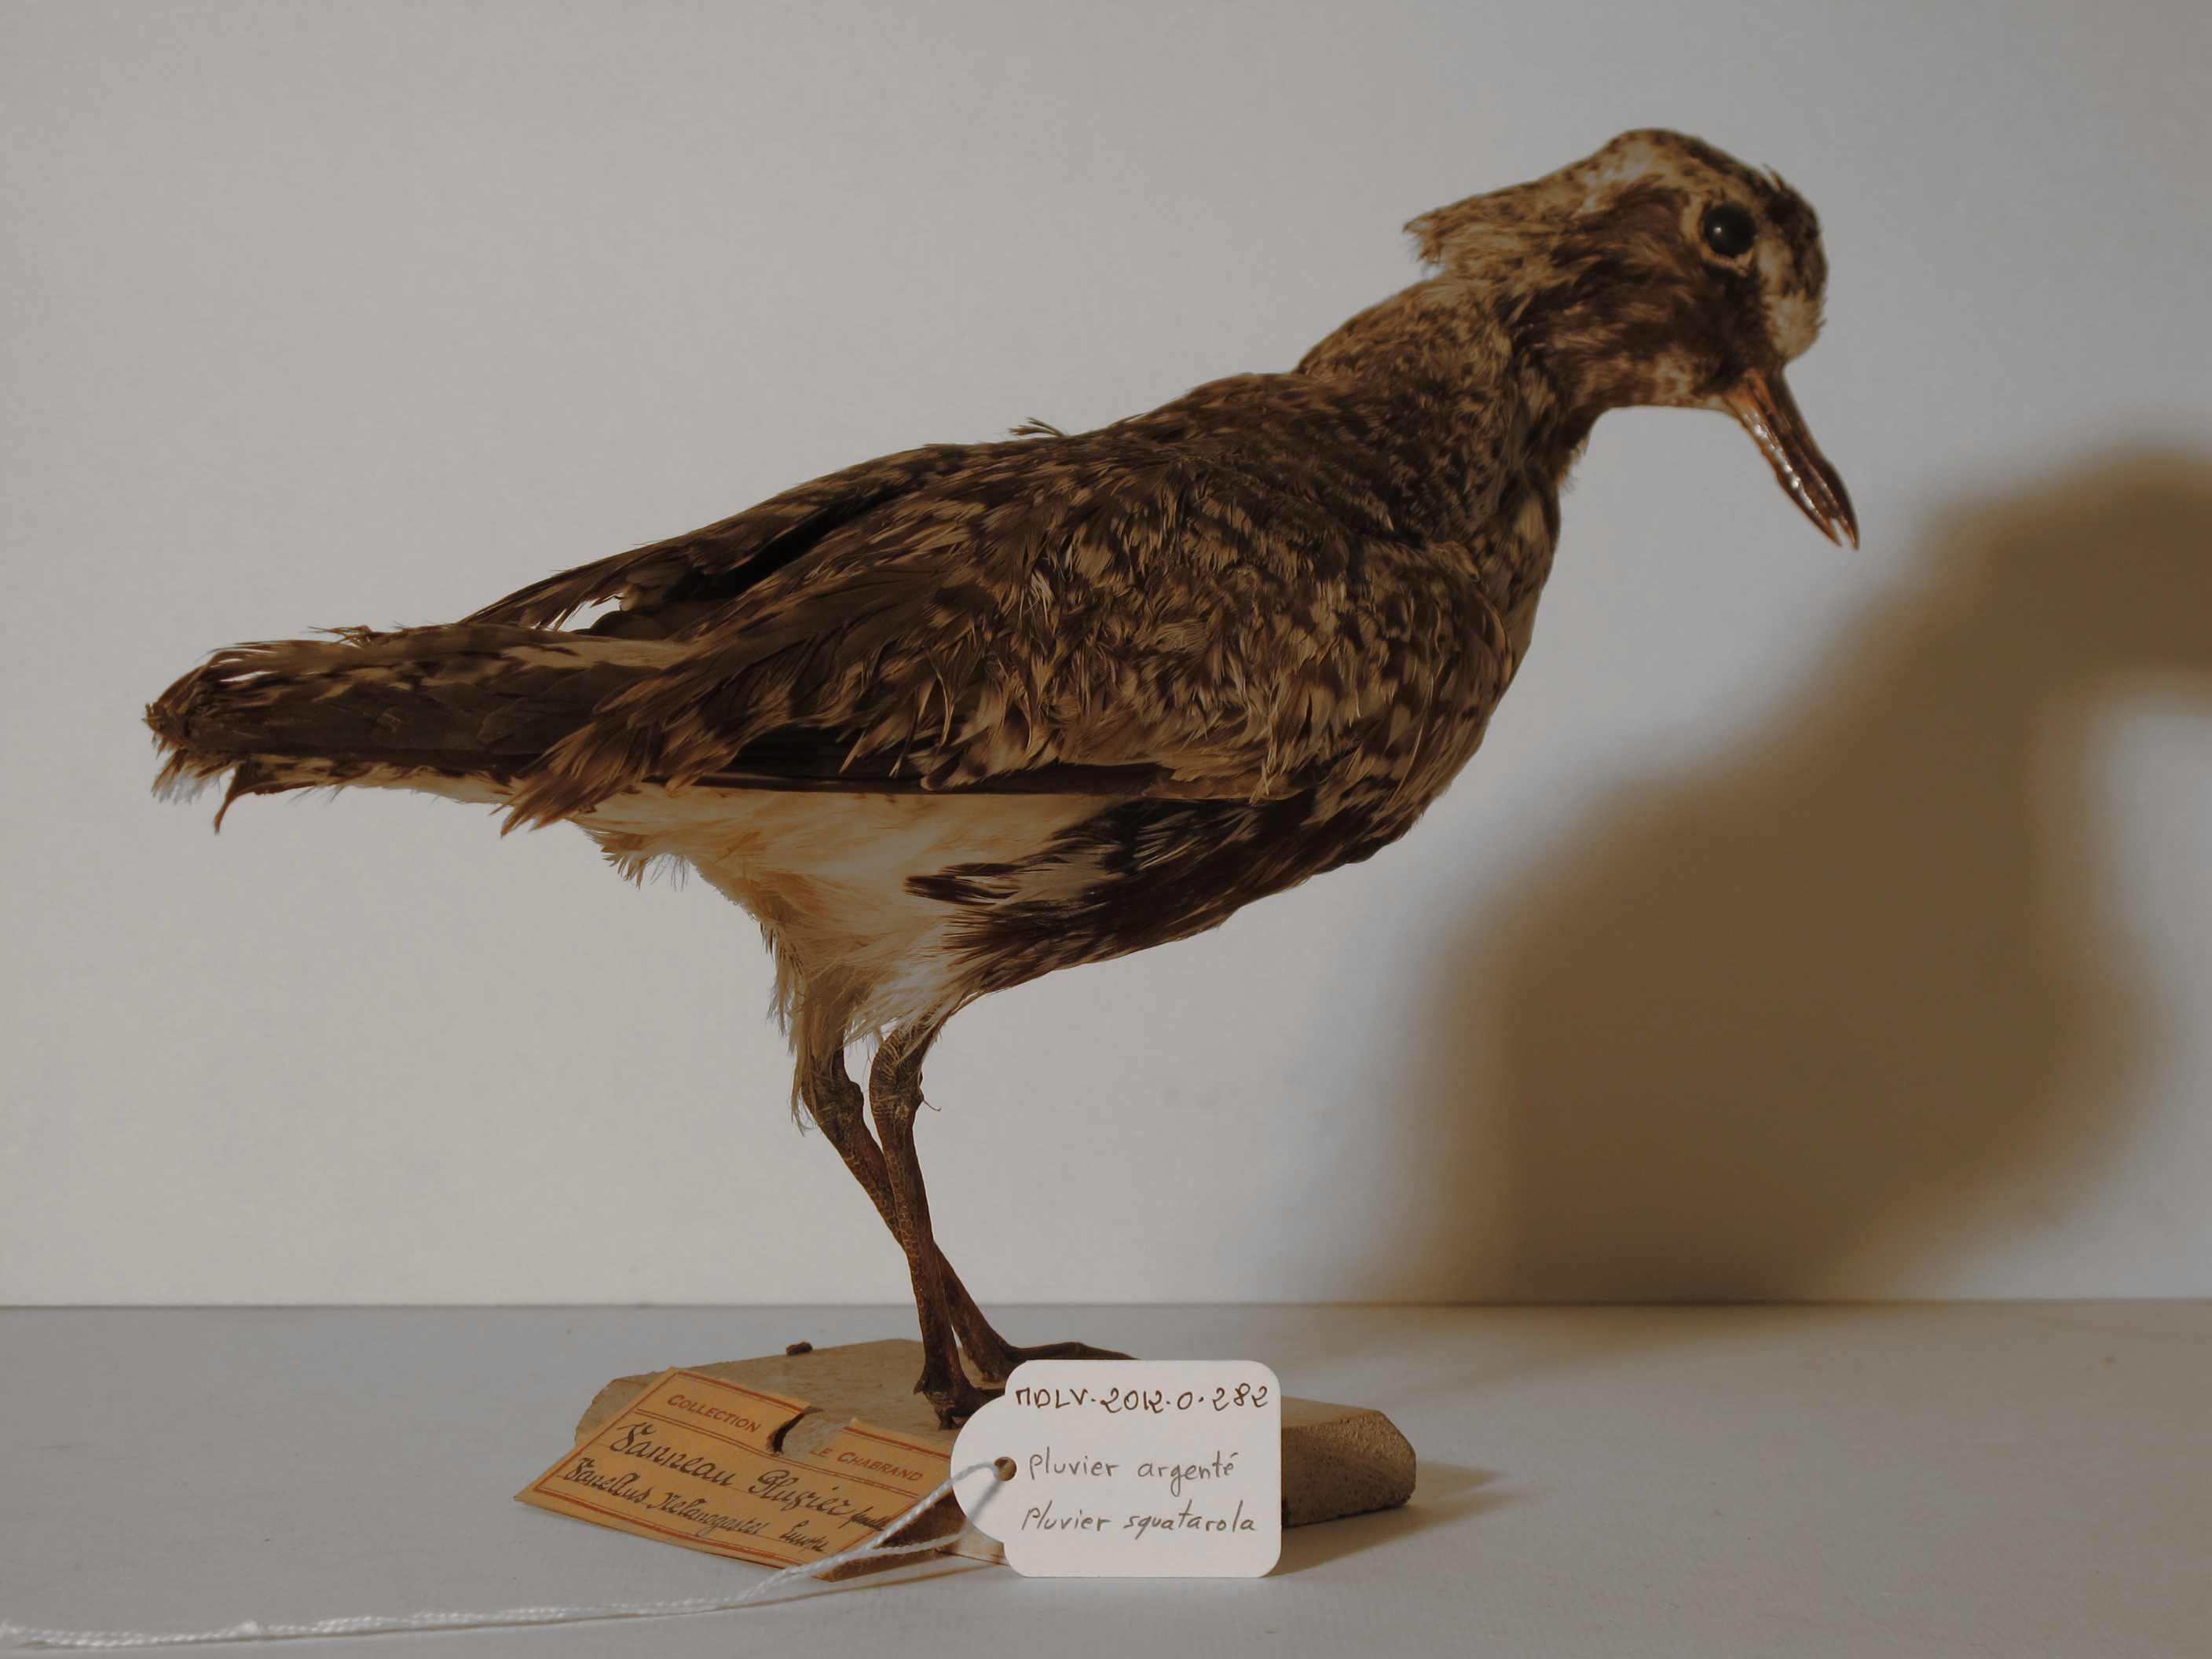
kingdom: Animalia
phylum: Chordata
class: Aves
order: Charadriiformes
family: Charadriidae
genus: Pluvialis
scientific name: Pluvialis squatarola
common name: Grey Plover
